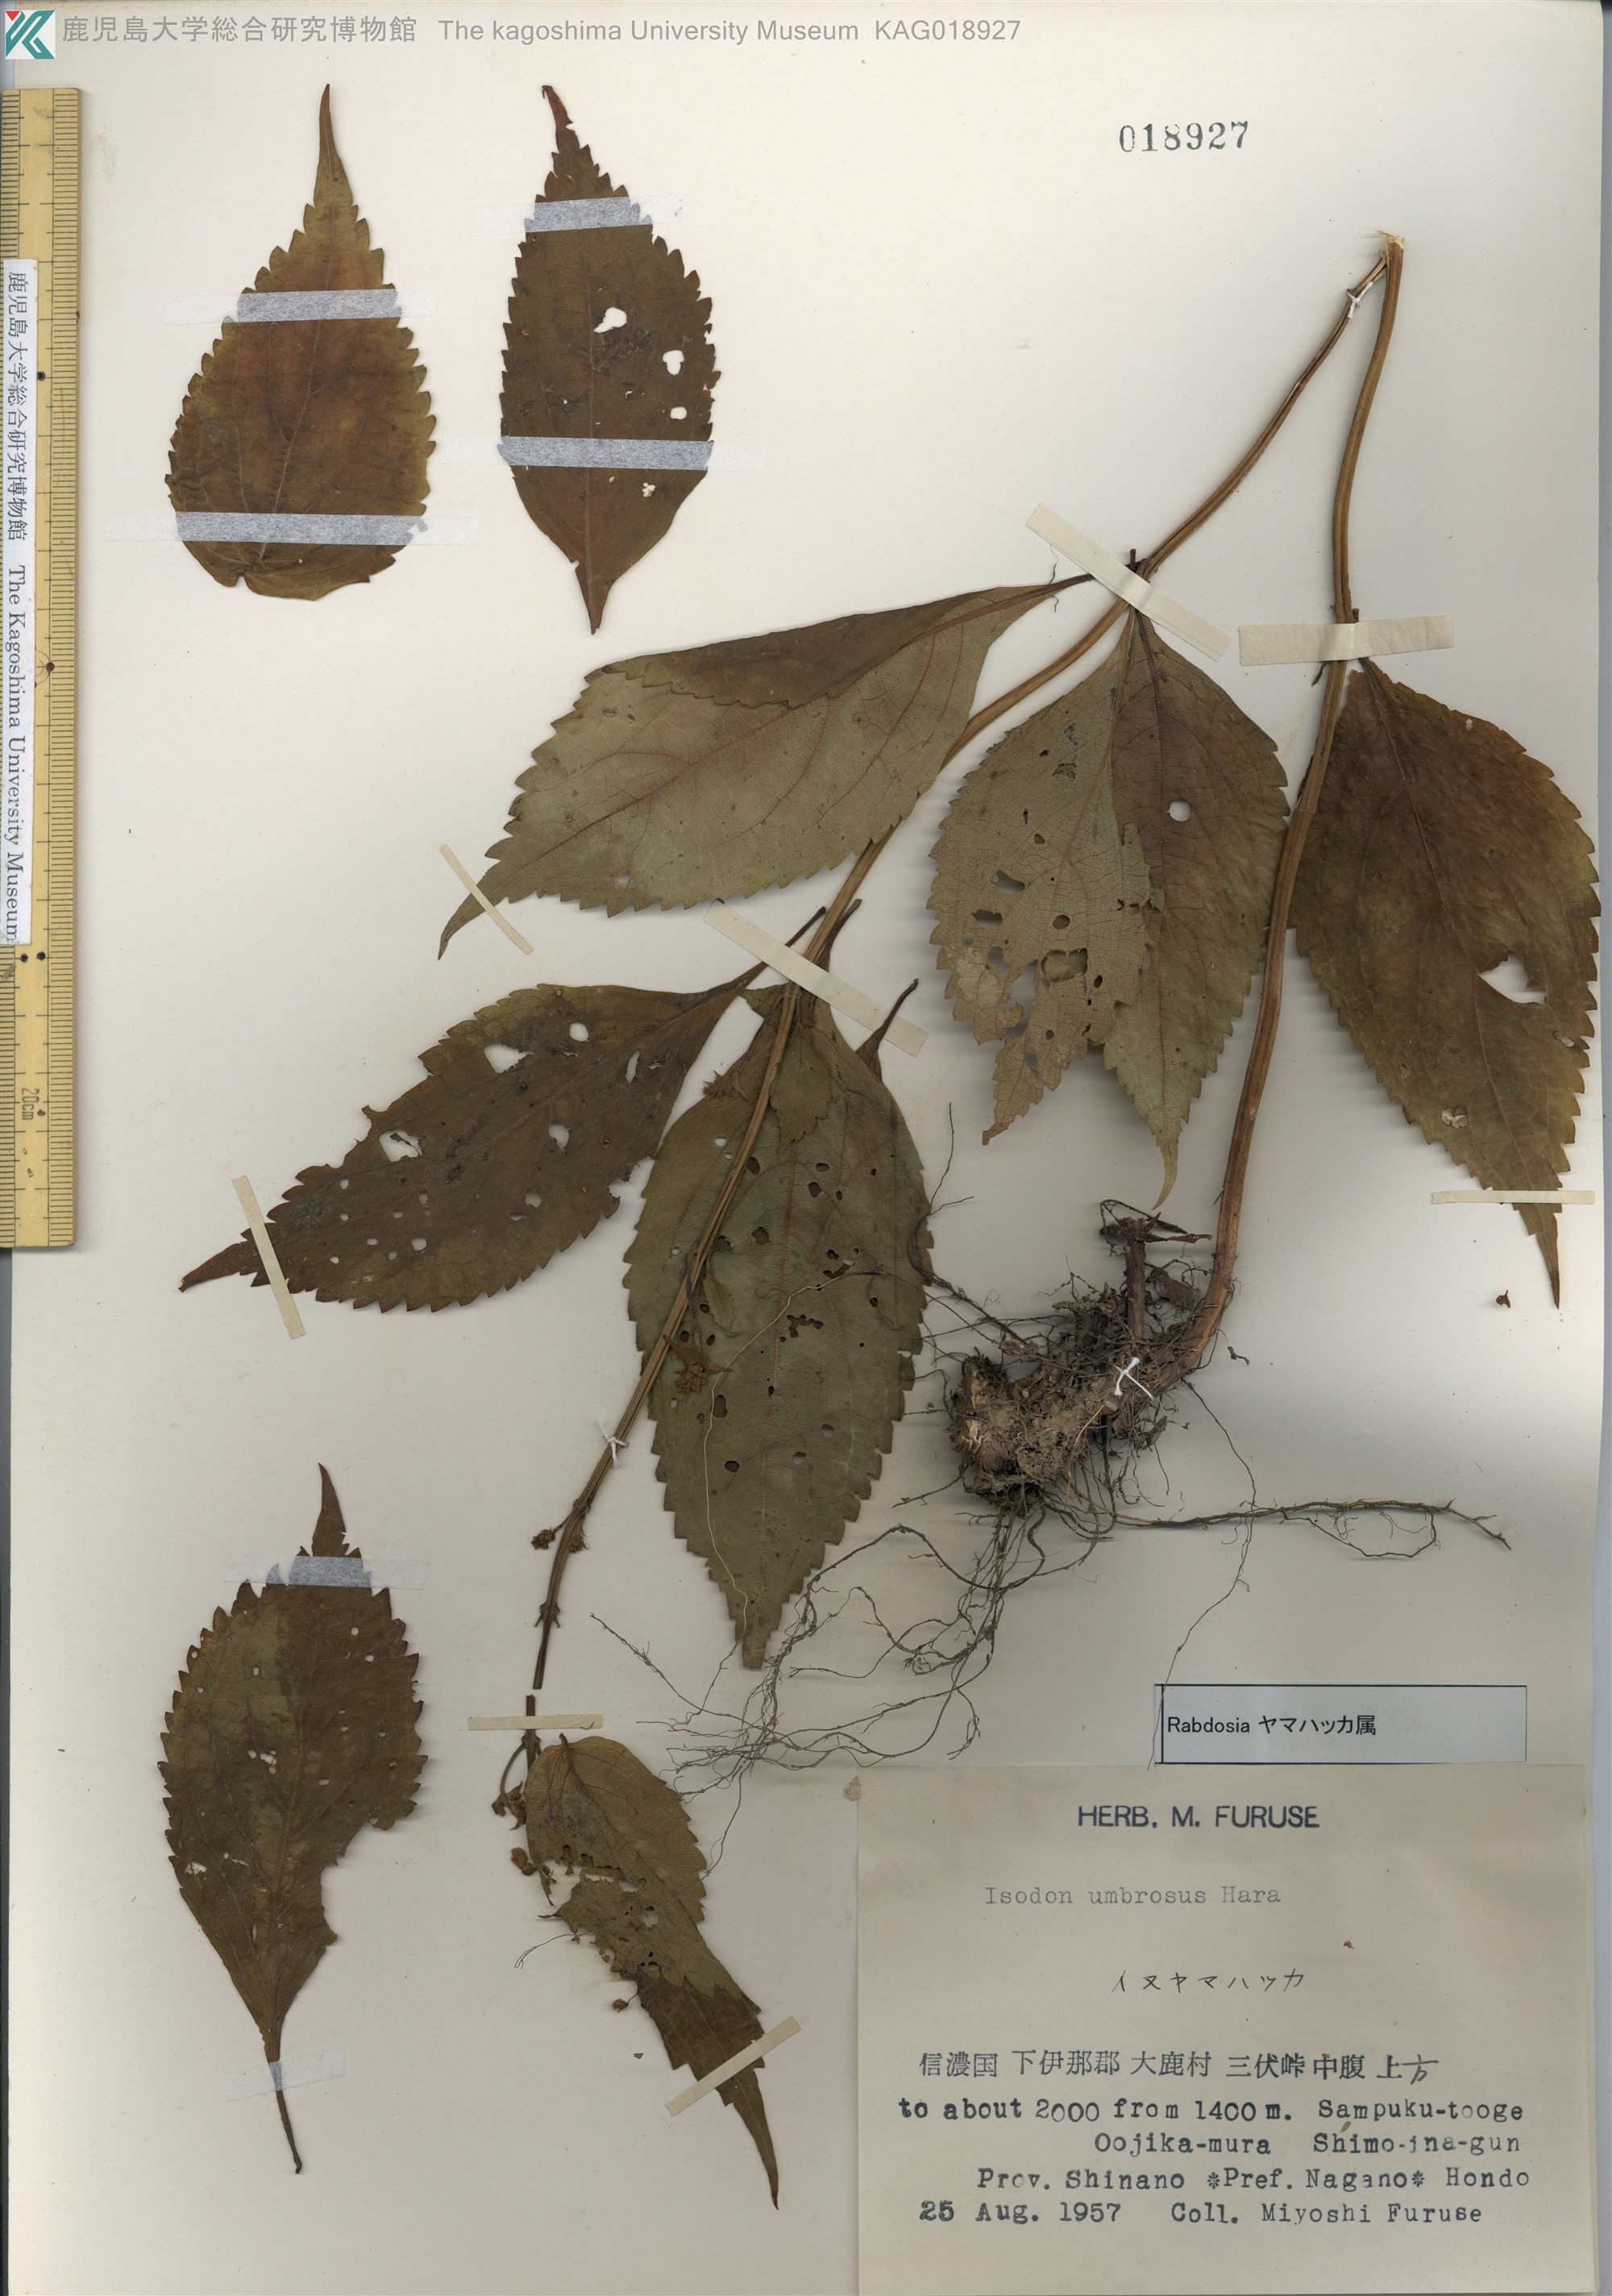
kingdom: Plantae
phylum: Tracheophyta
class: Magnoliopsida
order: Lamiales
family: Lamiaceae
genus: Isodon
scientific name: Isodon umbrosus
